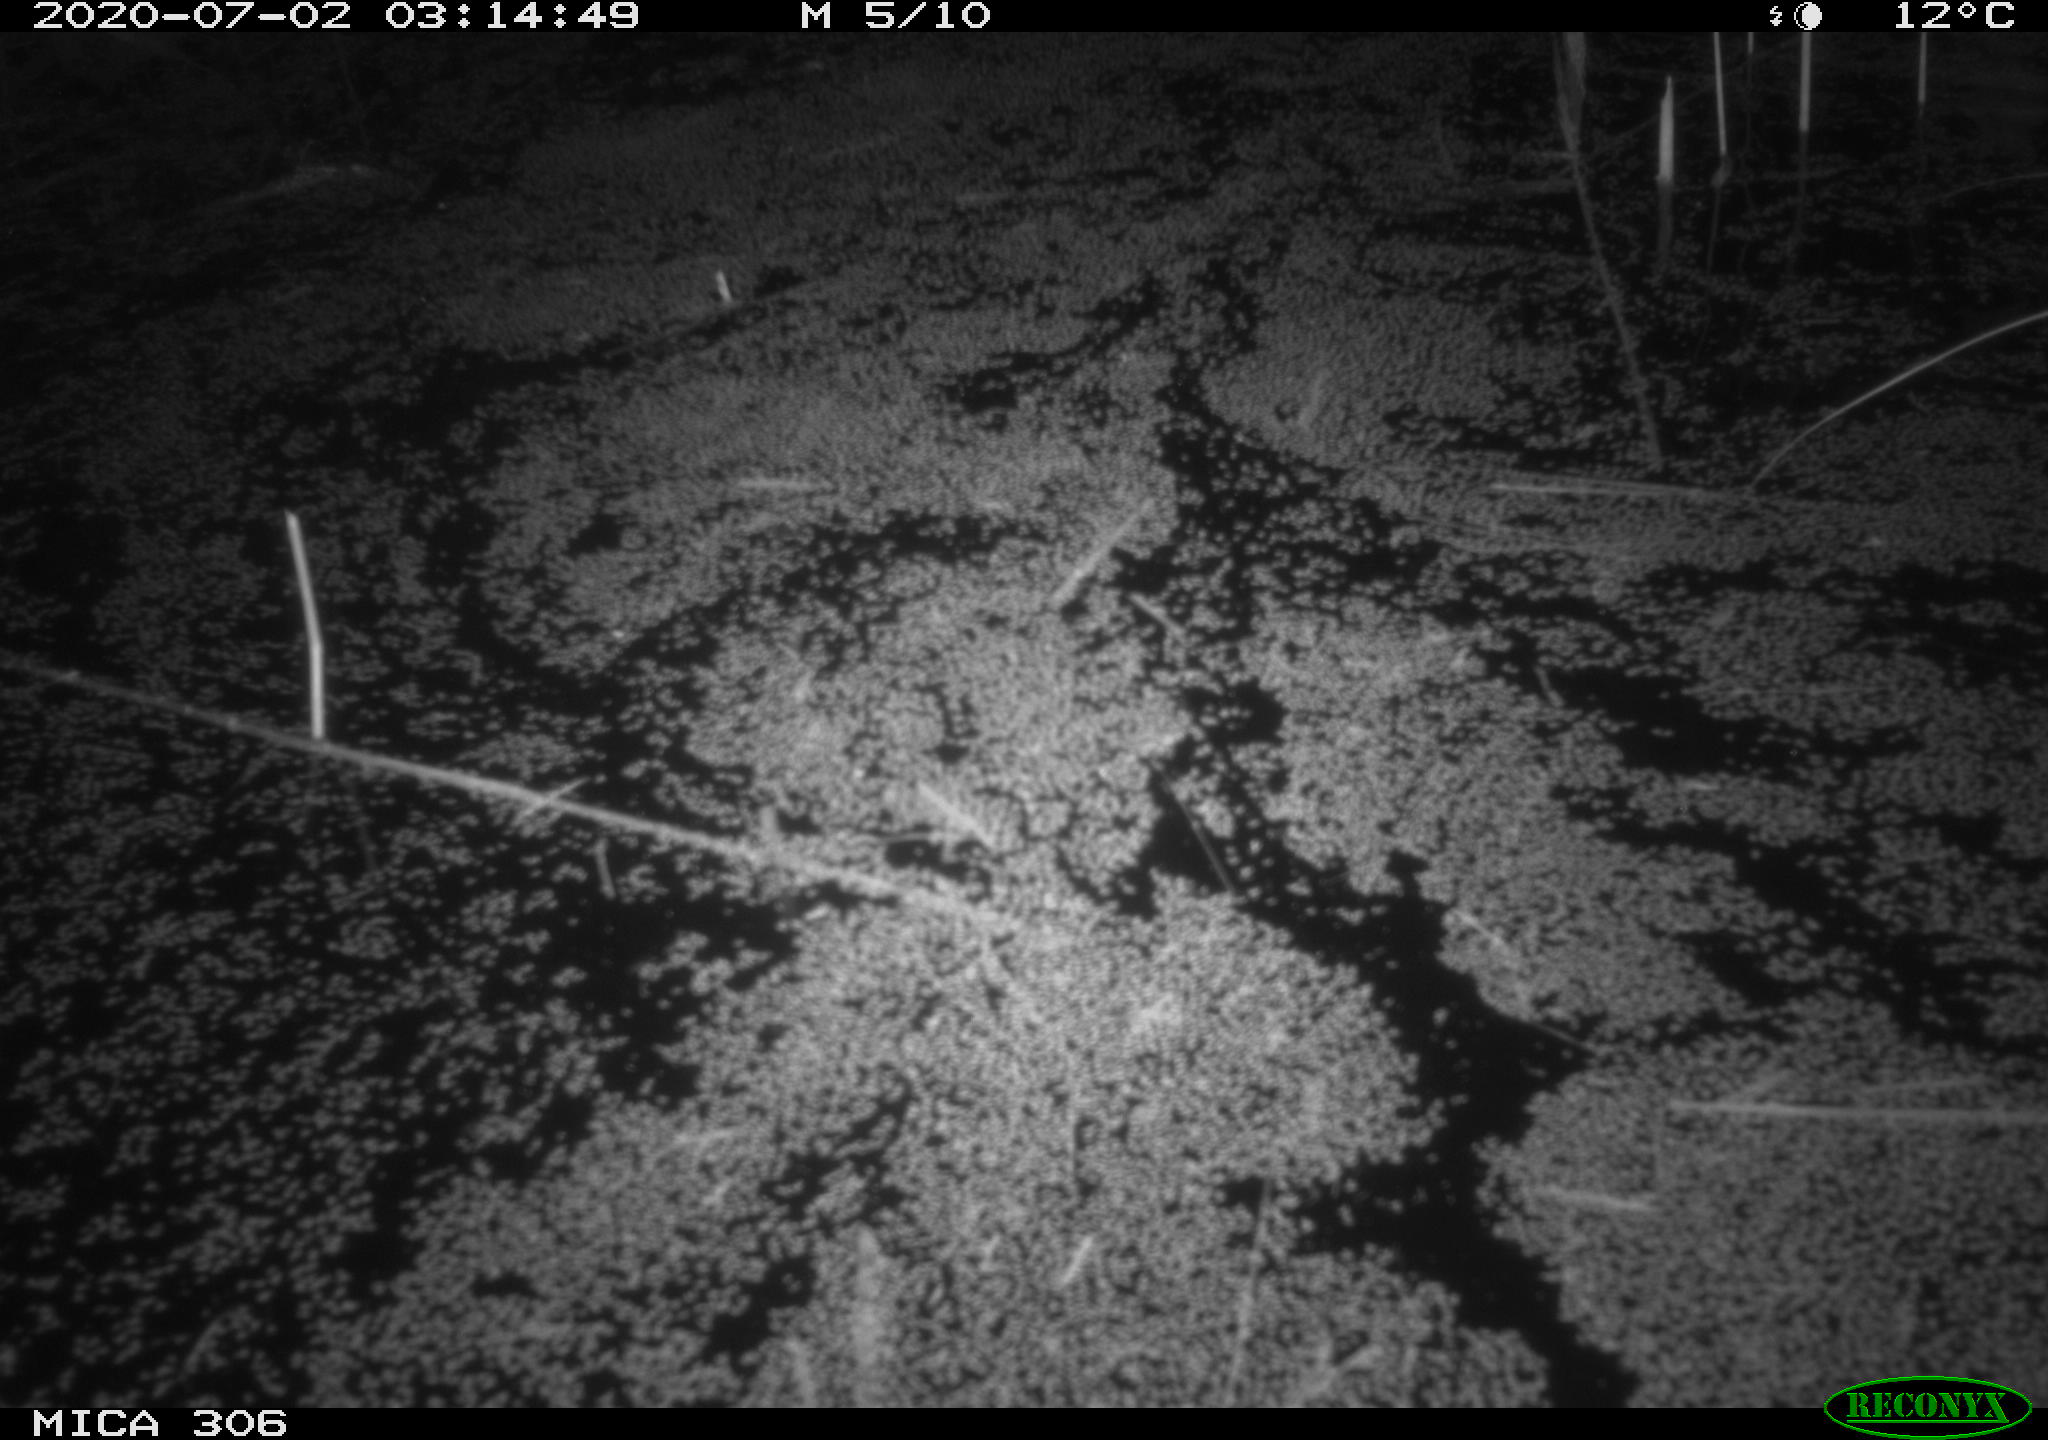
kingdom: Animalia
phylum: Chordata
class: Mammalia
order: Rodentia
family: Muridae
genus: Rattus
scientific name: Rattus norvegicus
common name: Brown rat
